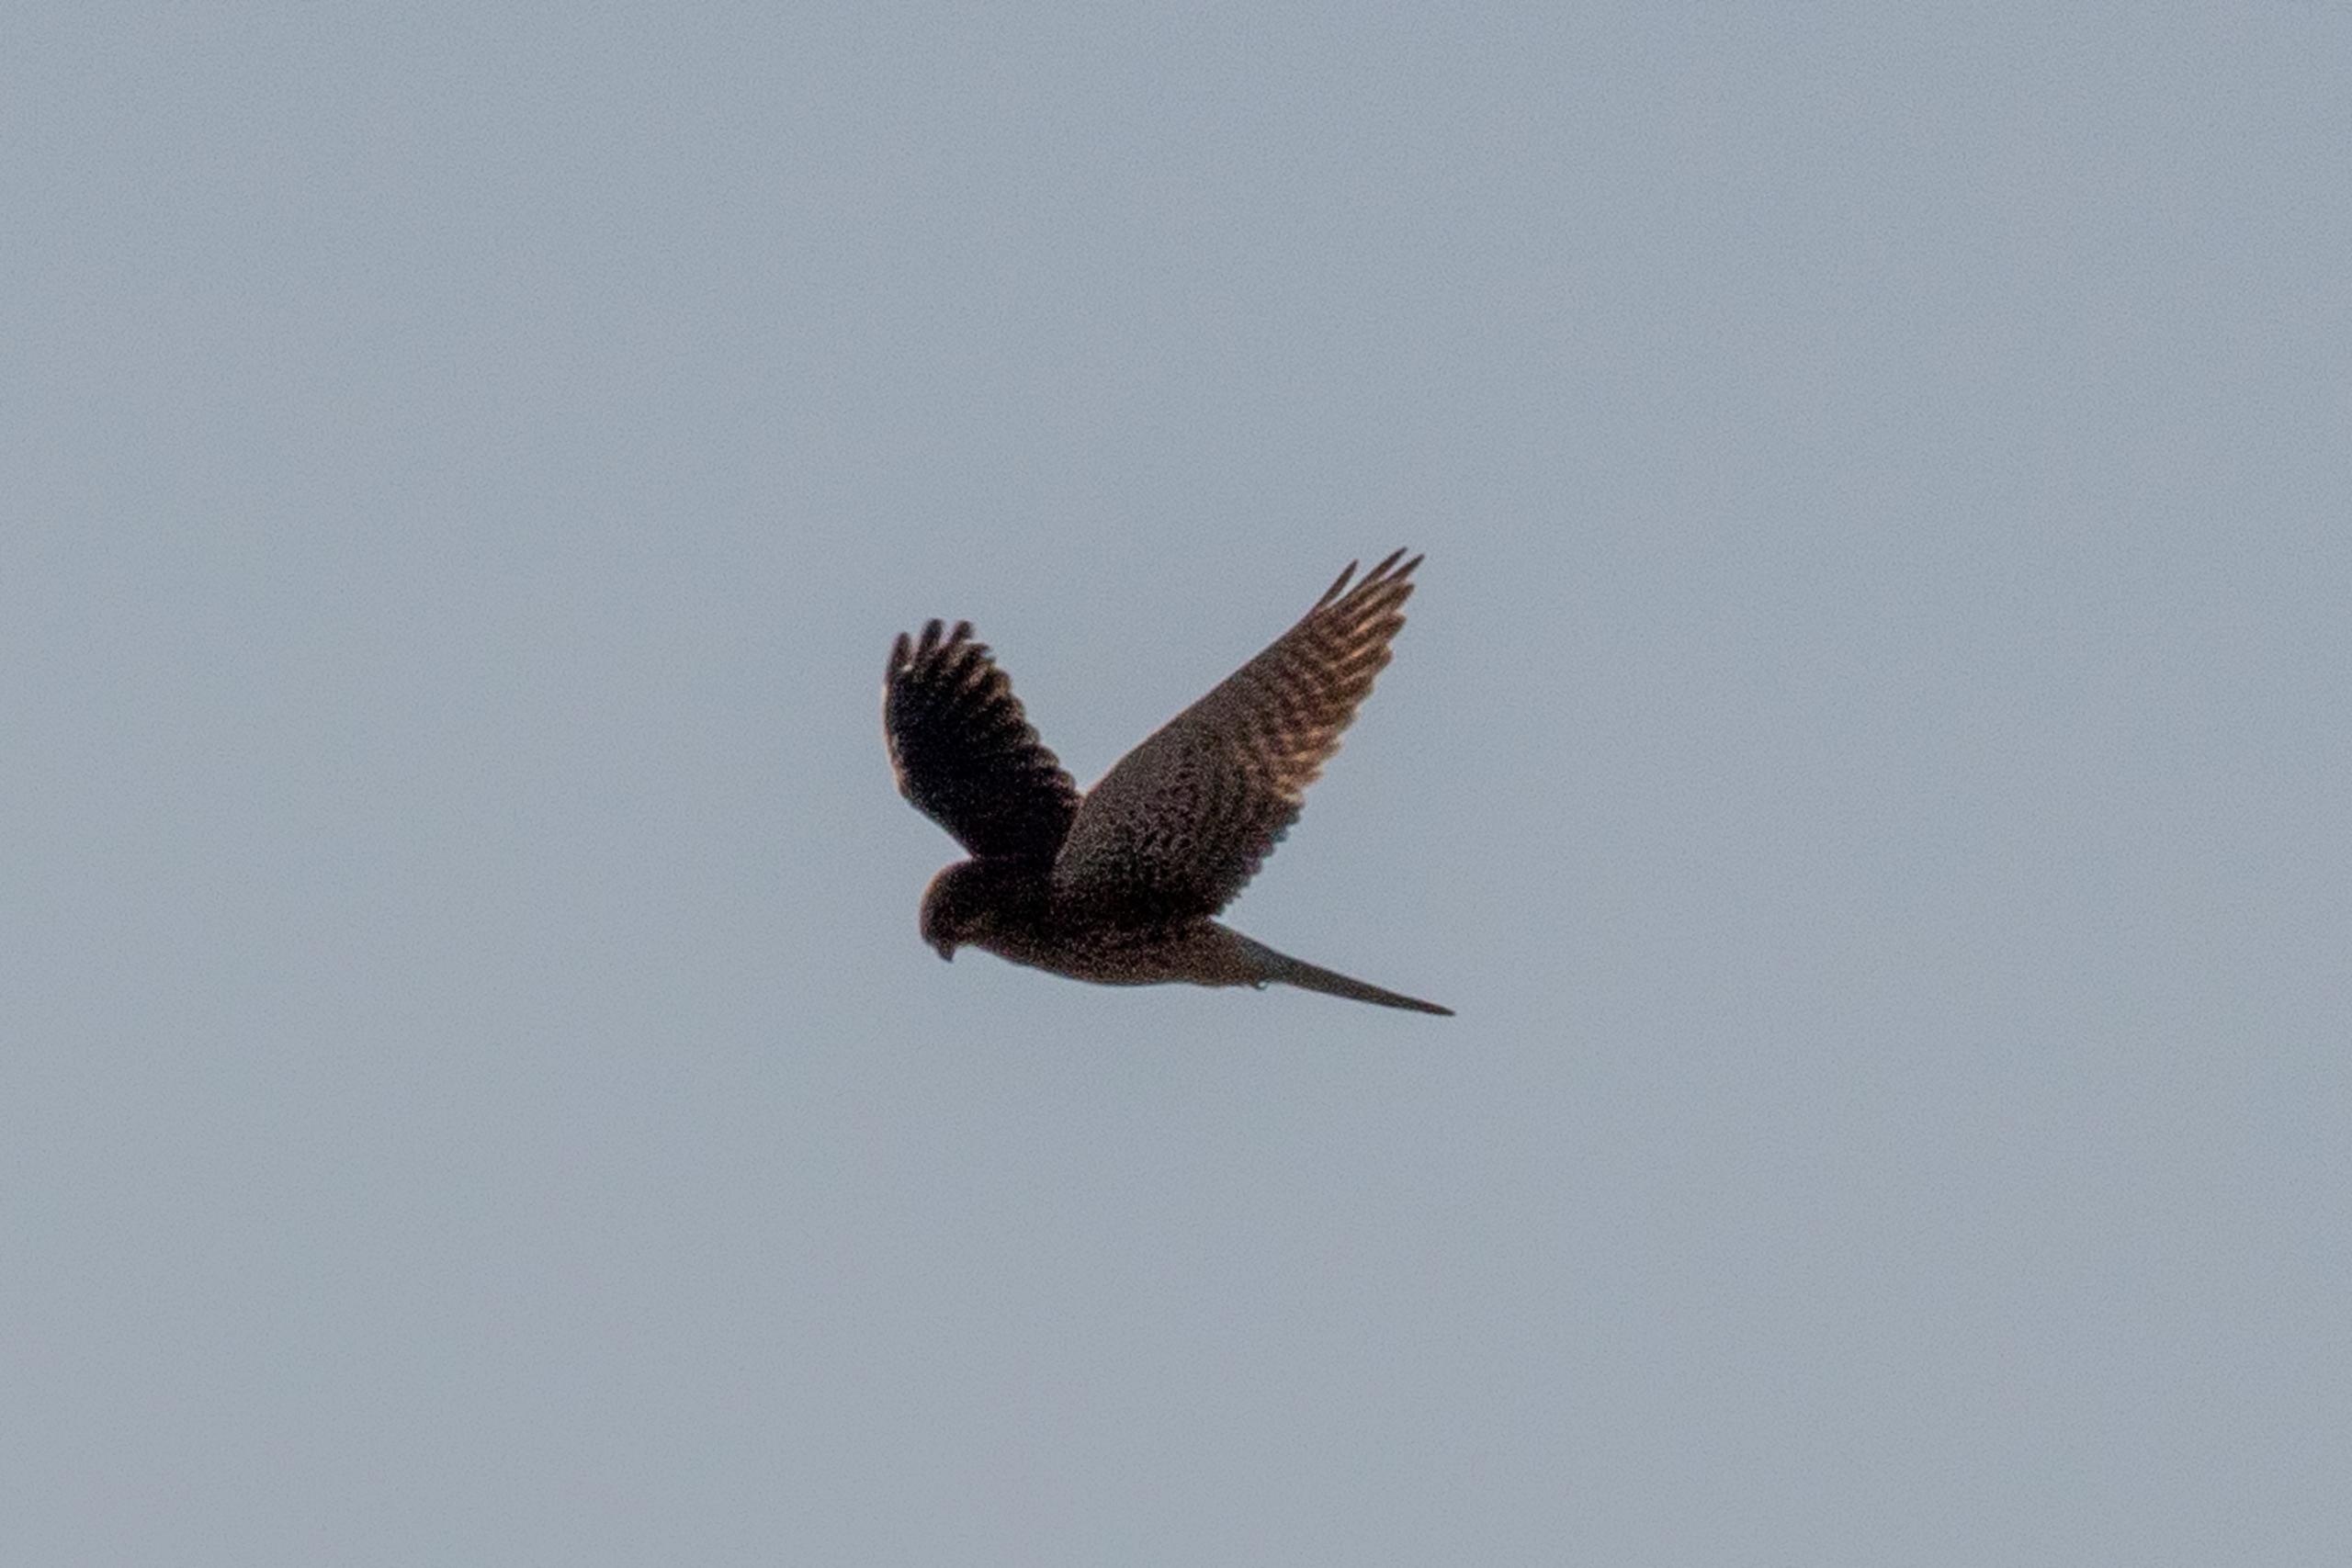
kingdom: Animalia
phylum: Chordata
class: Aves
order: Falconiformes
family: Falconidae
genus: Falco
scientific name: Falco tinnunculus
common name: Tårnfalk
